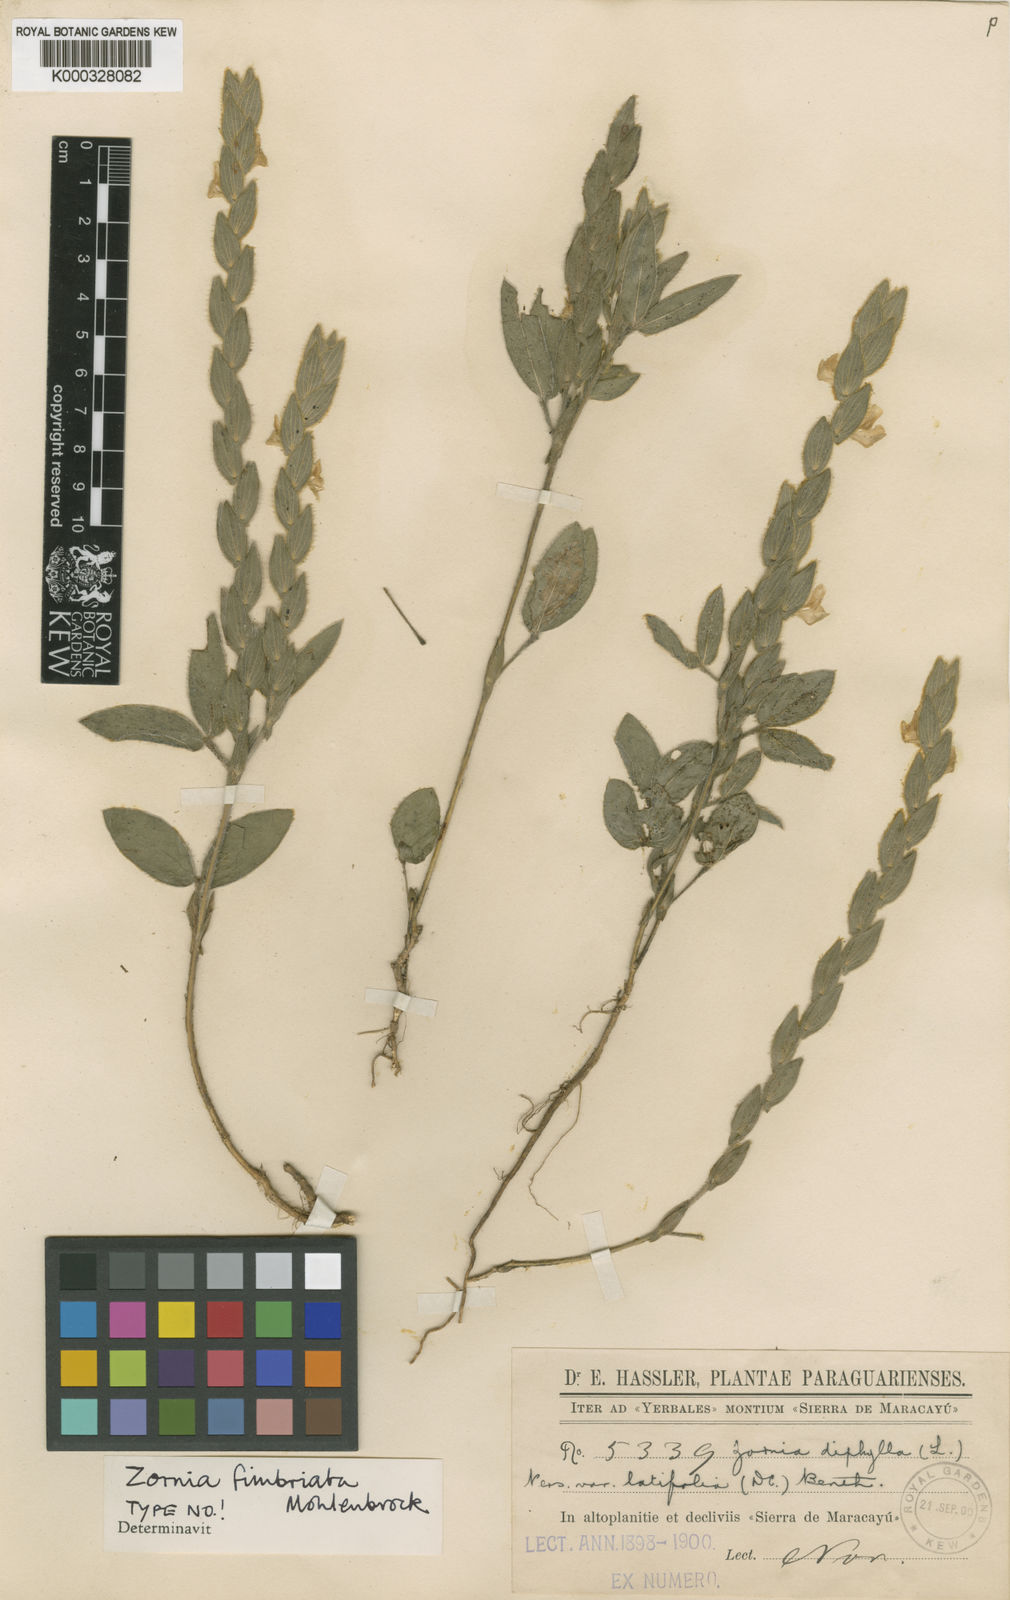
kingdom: Plantae
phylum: Tracheophyta
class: Magnoliopsida
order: Fabales
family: Fabaceae
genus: Zornia
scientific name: Zornia fimbriata
